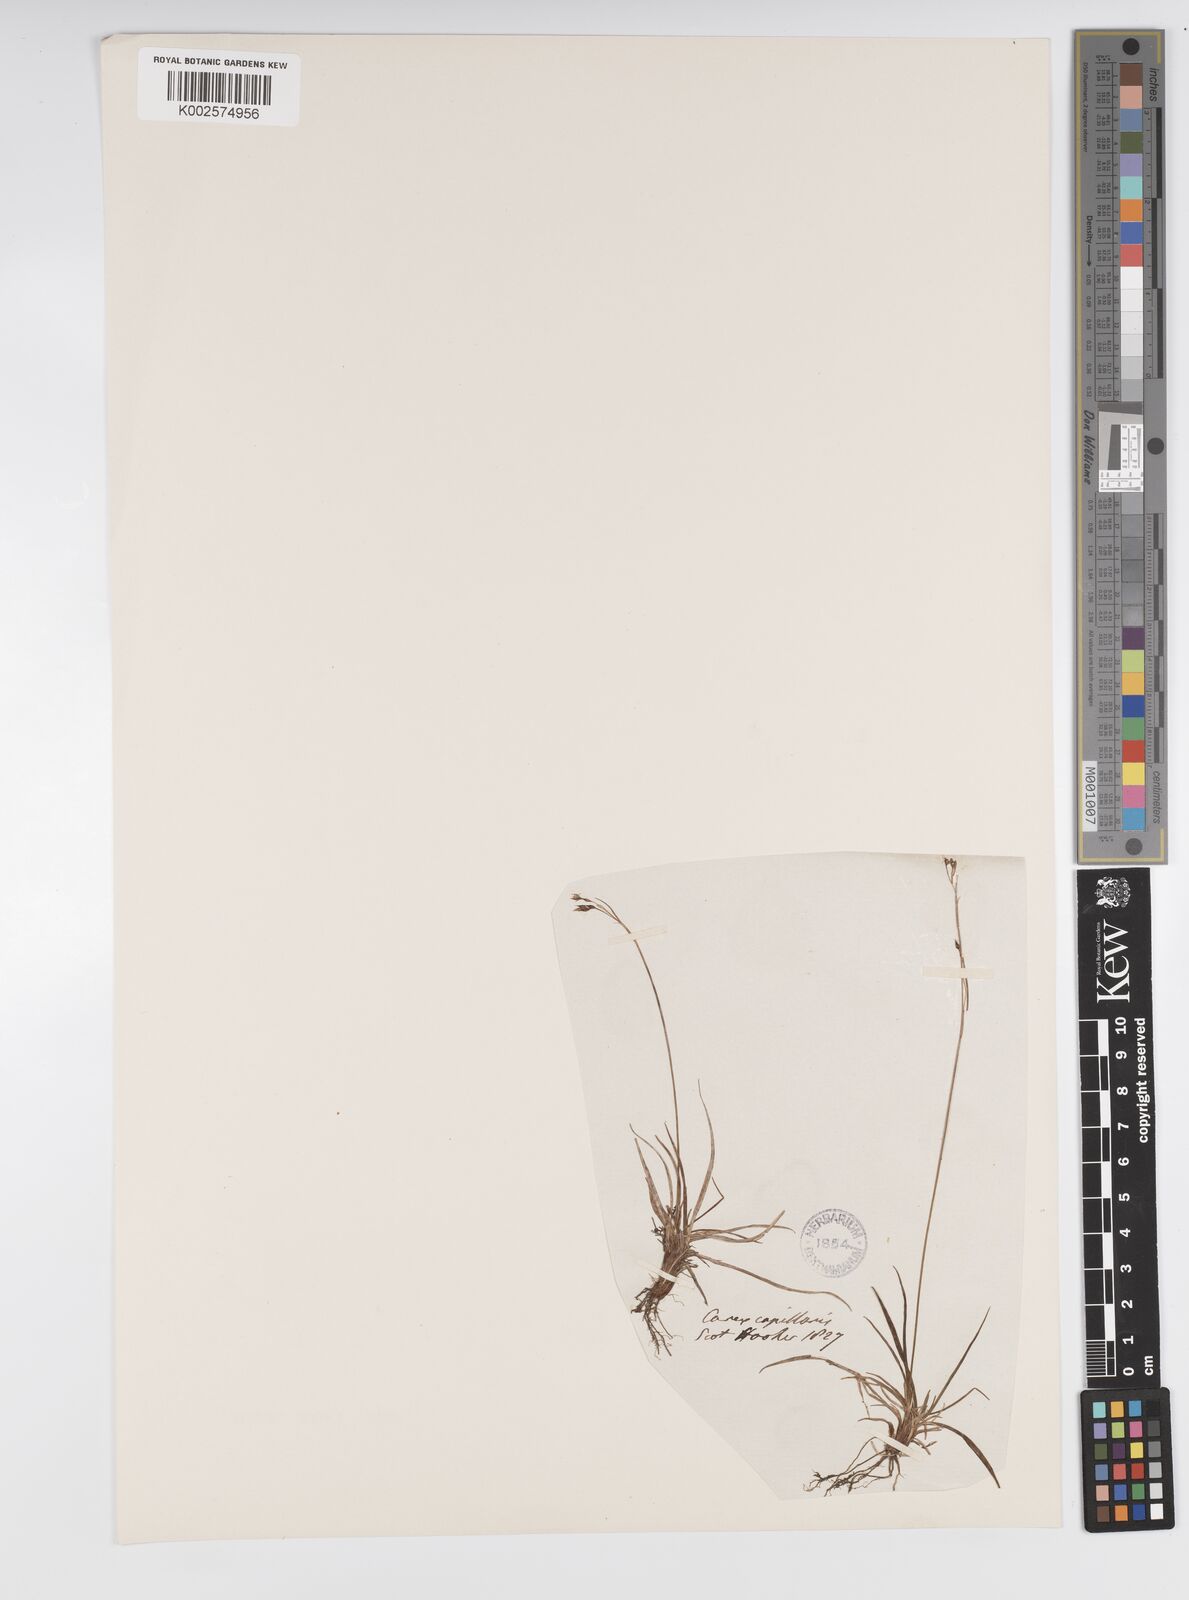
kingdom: Plantae
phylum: Tracheophyta
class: Liliopsida
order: Poales
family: Cyperaceae
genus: Carex
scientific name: Carex capillaris
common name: Hair sedge
